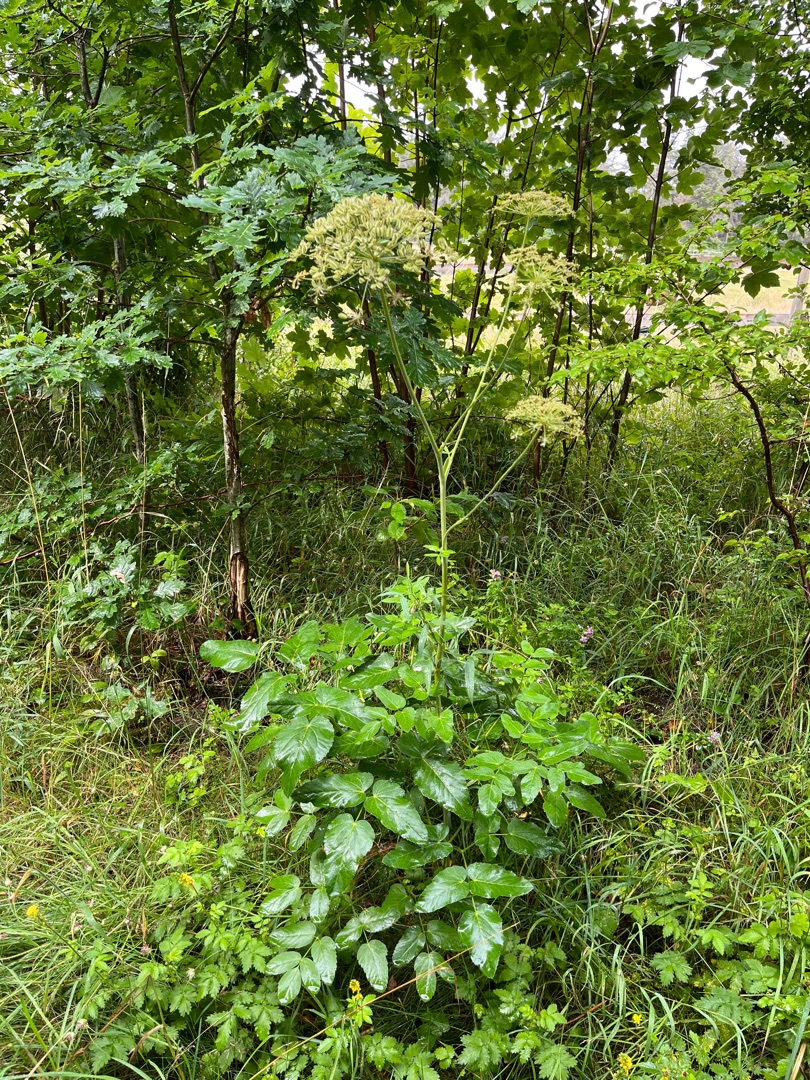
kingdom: Plantae
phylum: Tracheophyta
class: Magnoliopsida
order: Apiales
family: Apiaceae
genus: Laserpitium
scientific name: Laserpitium latifolium
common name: Foldfrø
